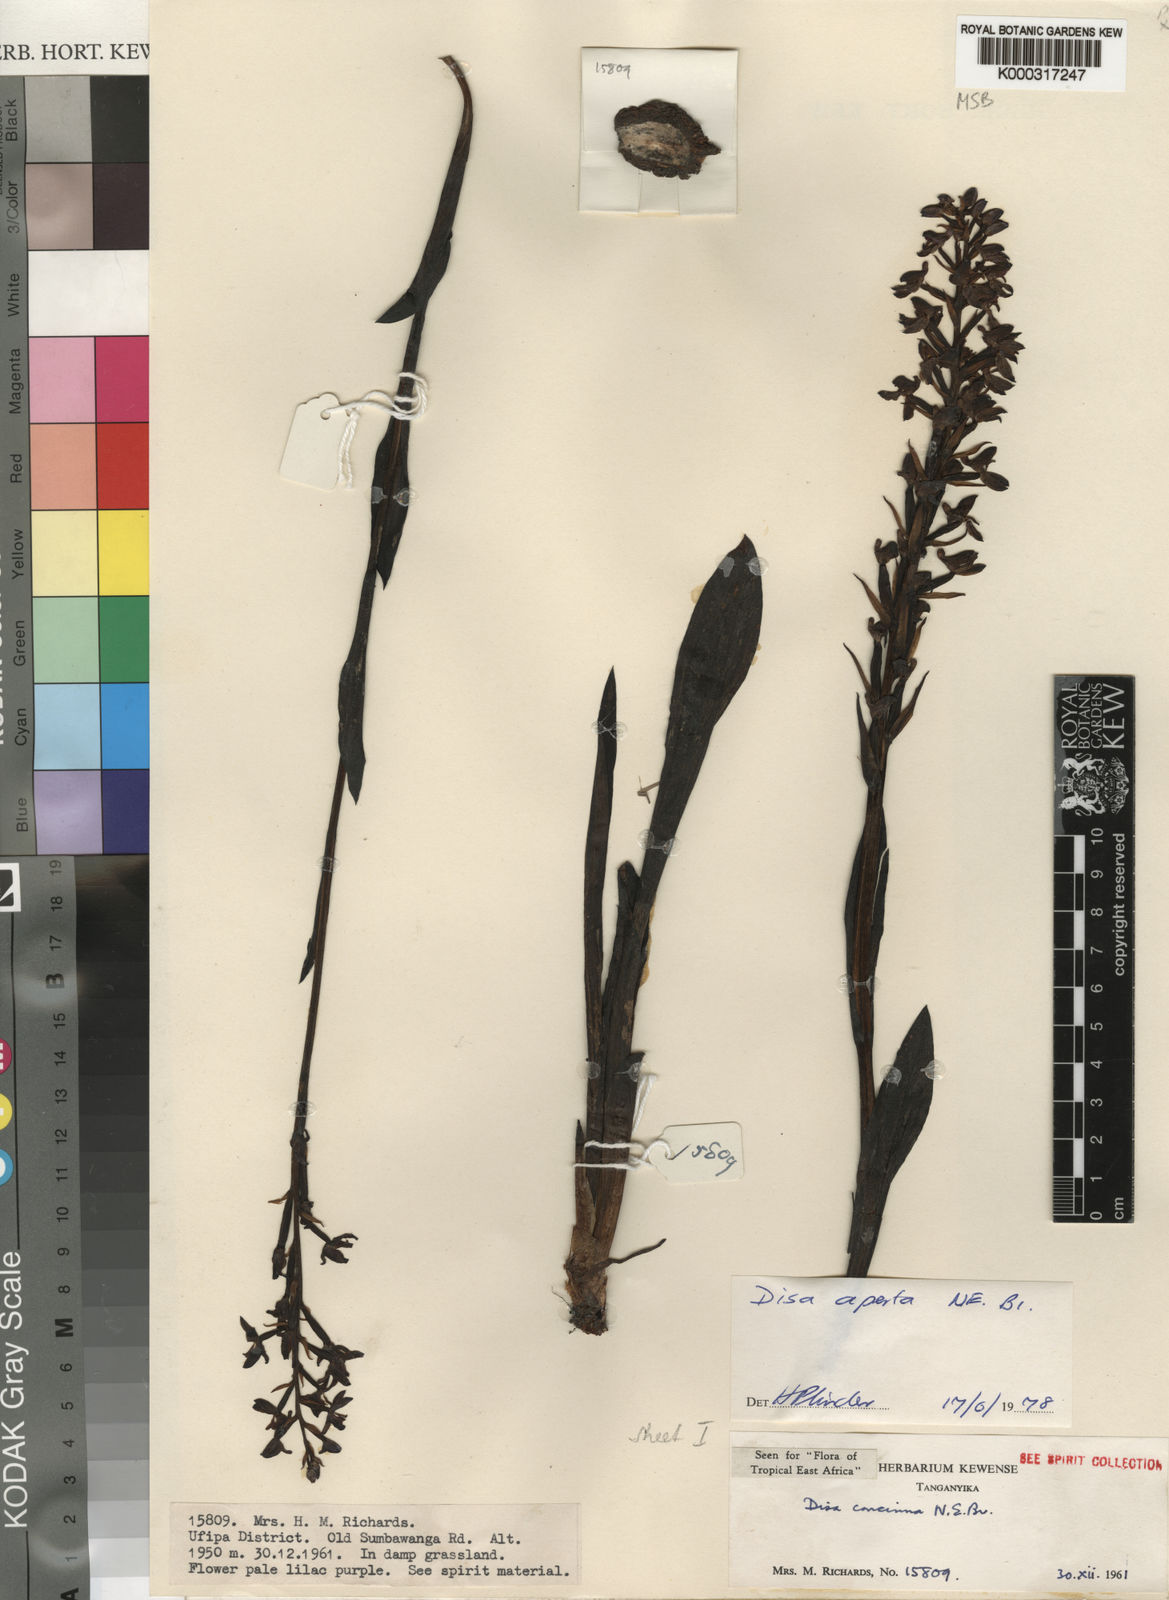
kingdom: Plantae
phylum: Tracheophyta
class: Liliopsida
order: Asparagales
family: Orchidaceae
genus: Disa
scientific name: Disa aperta
